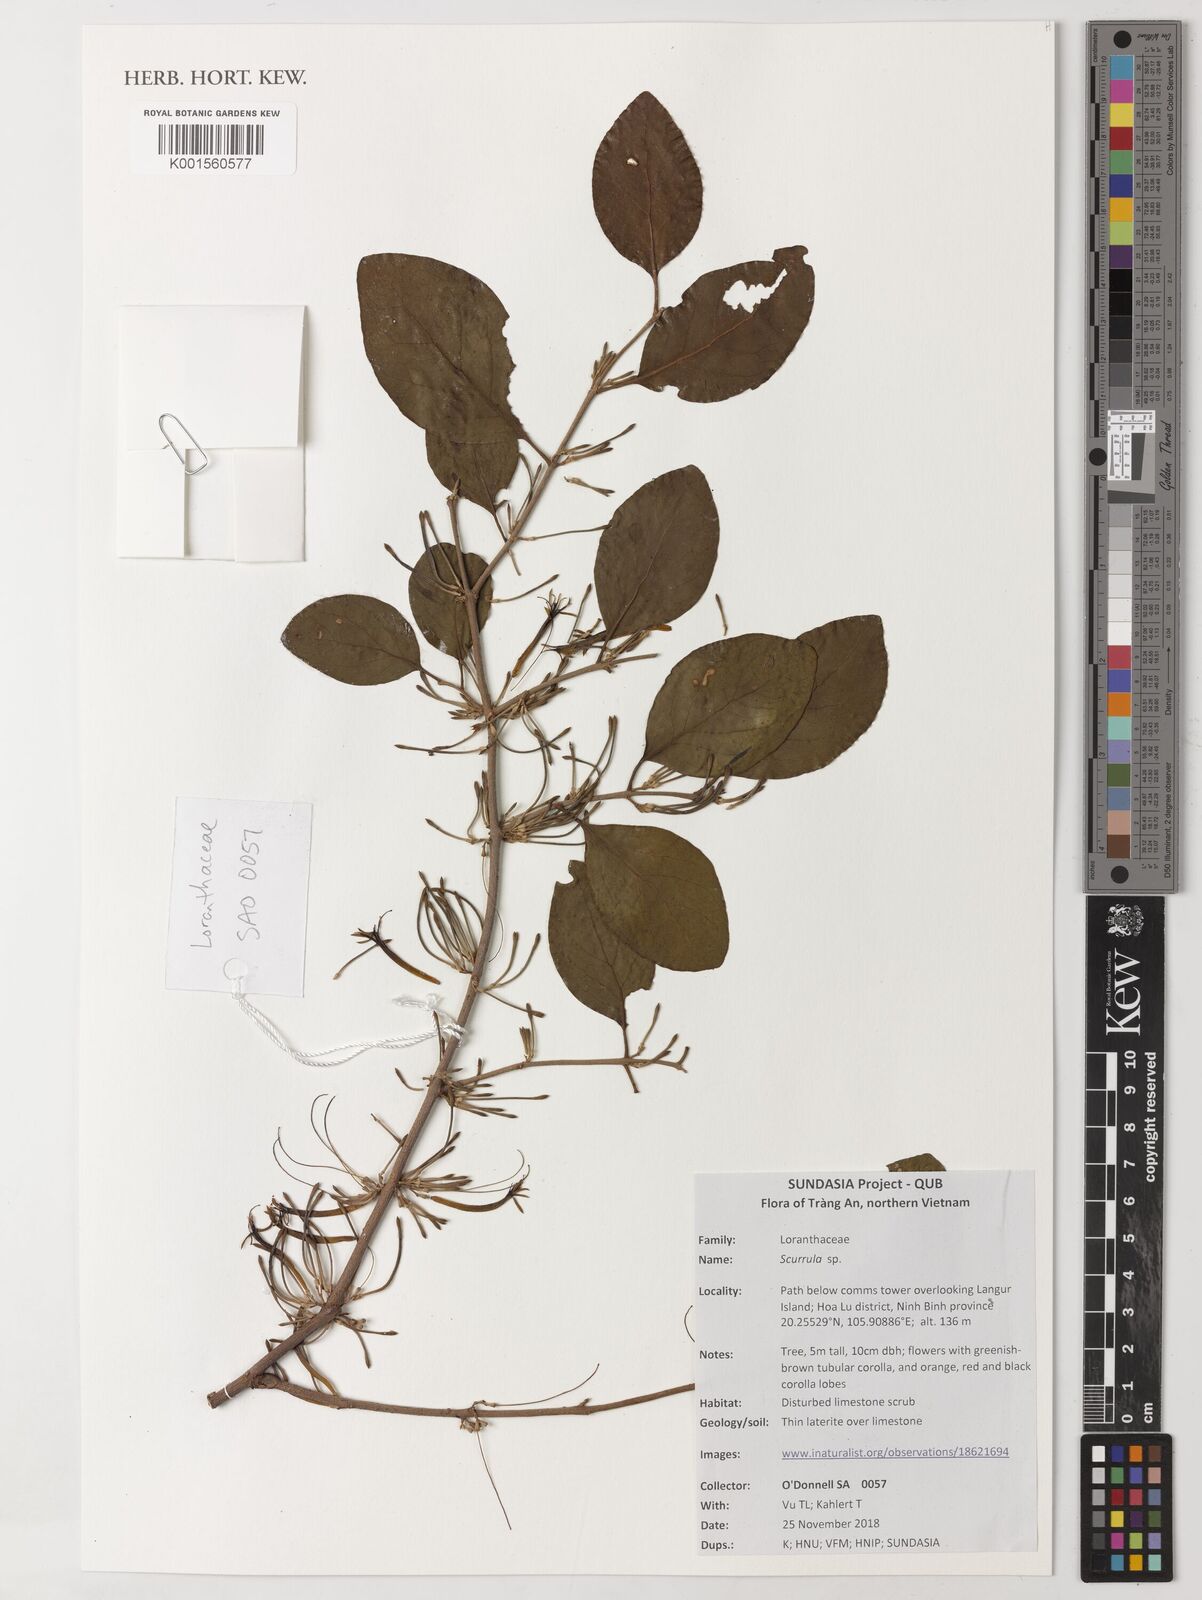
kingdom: Plantae
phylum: Tracheophyta
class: Magnoliopsida
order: Santalales
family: Loranthaceae
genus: Scurrula
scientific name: Scurrula
